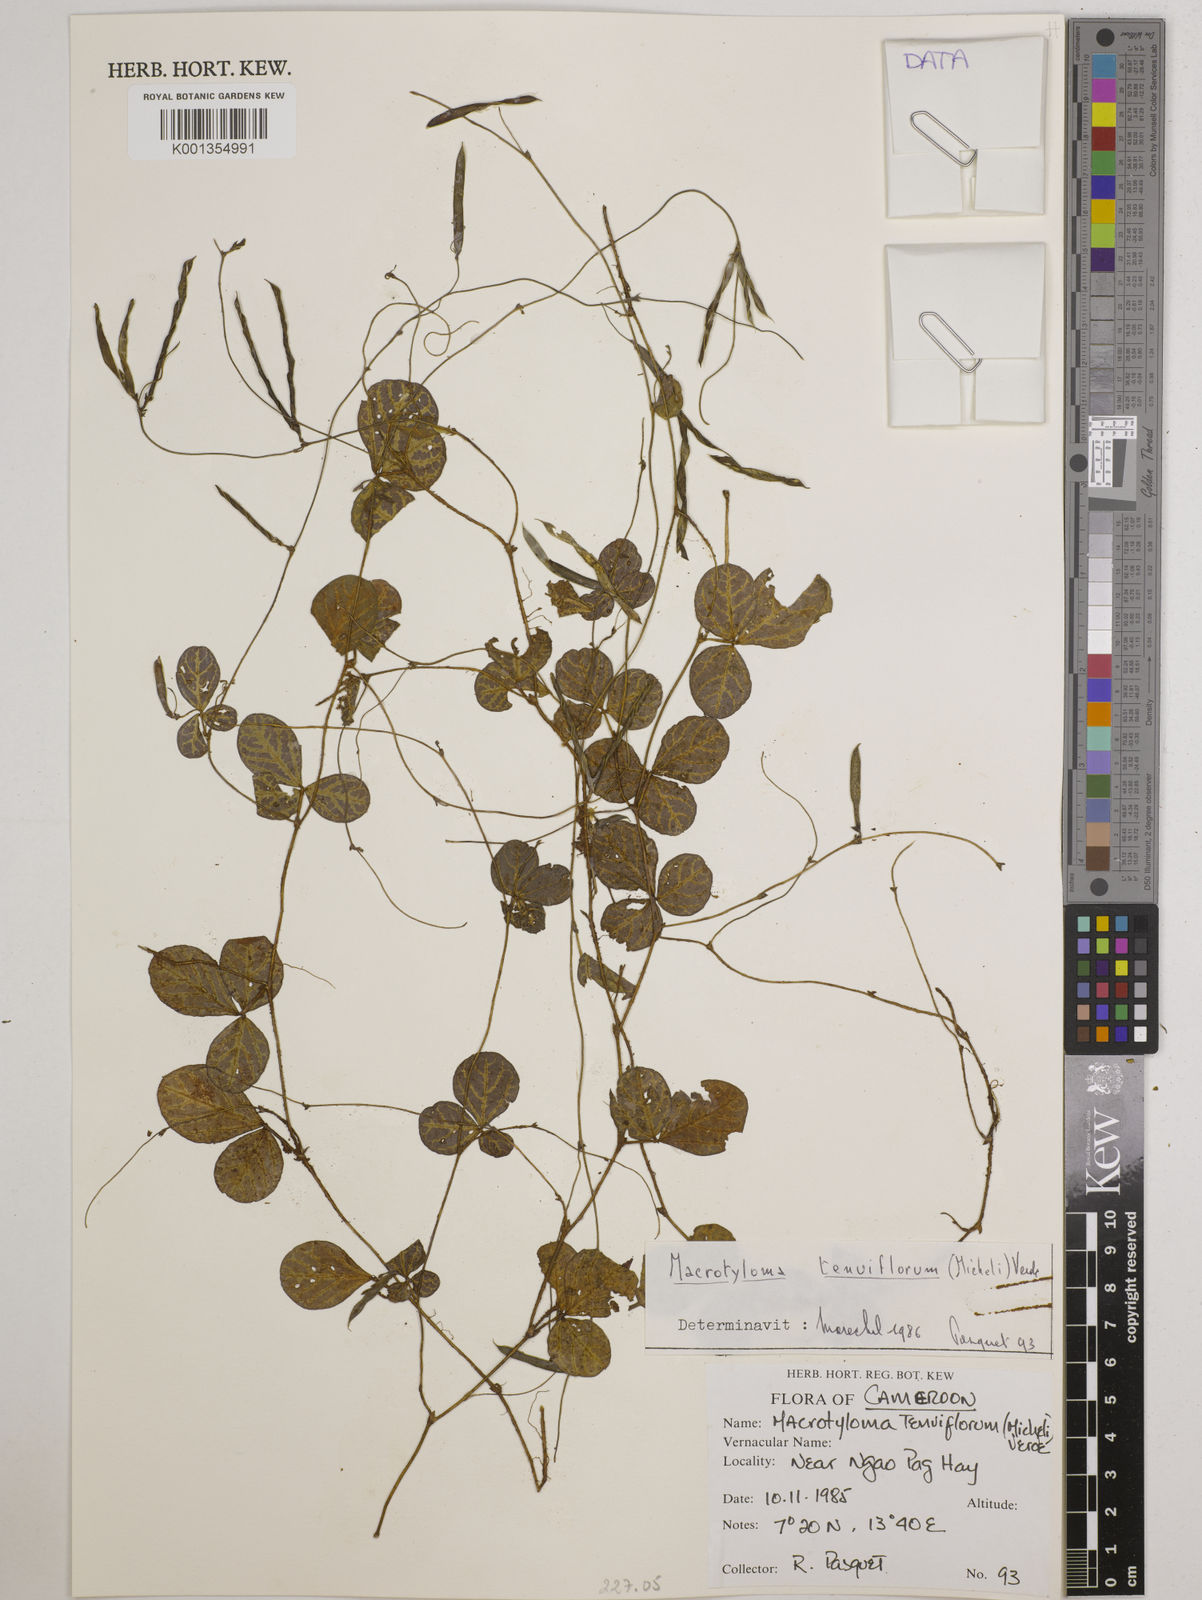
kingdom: Plantae
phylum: Tracheophyta
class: Magnoliopsida
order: Fabales
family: Fabaceae
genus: Macrotyloma
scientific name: Macrotyloma tenuiflorum
